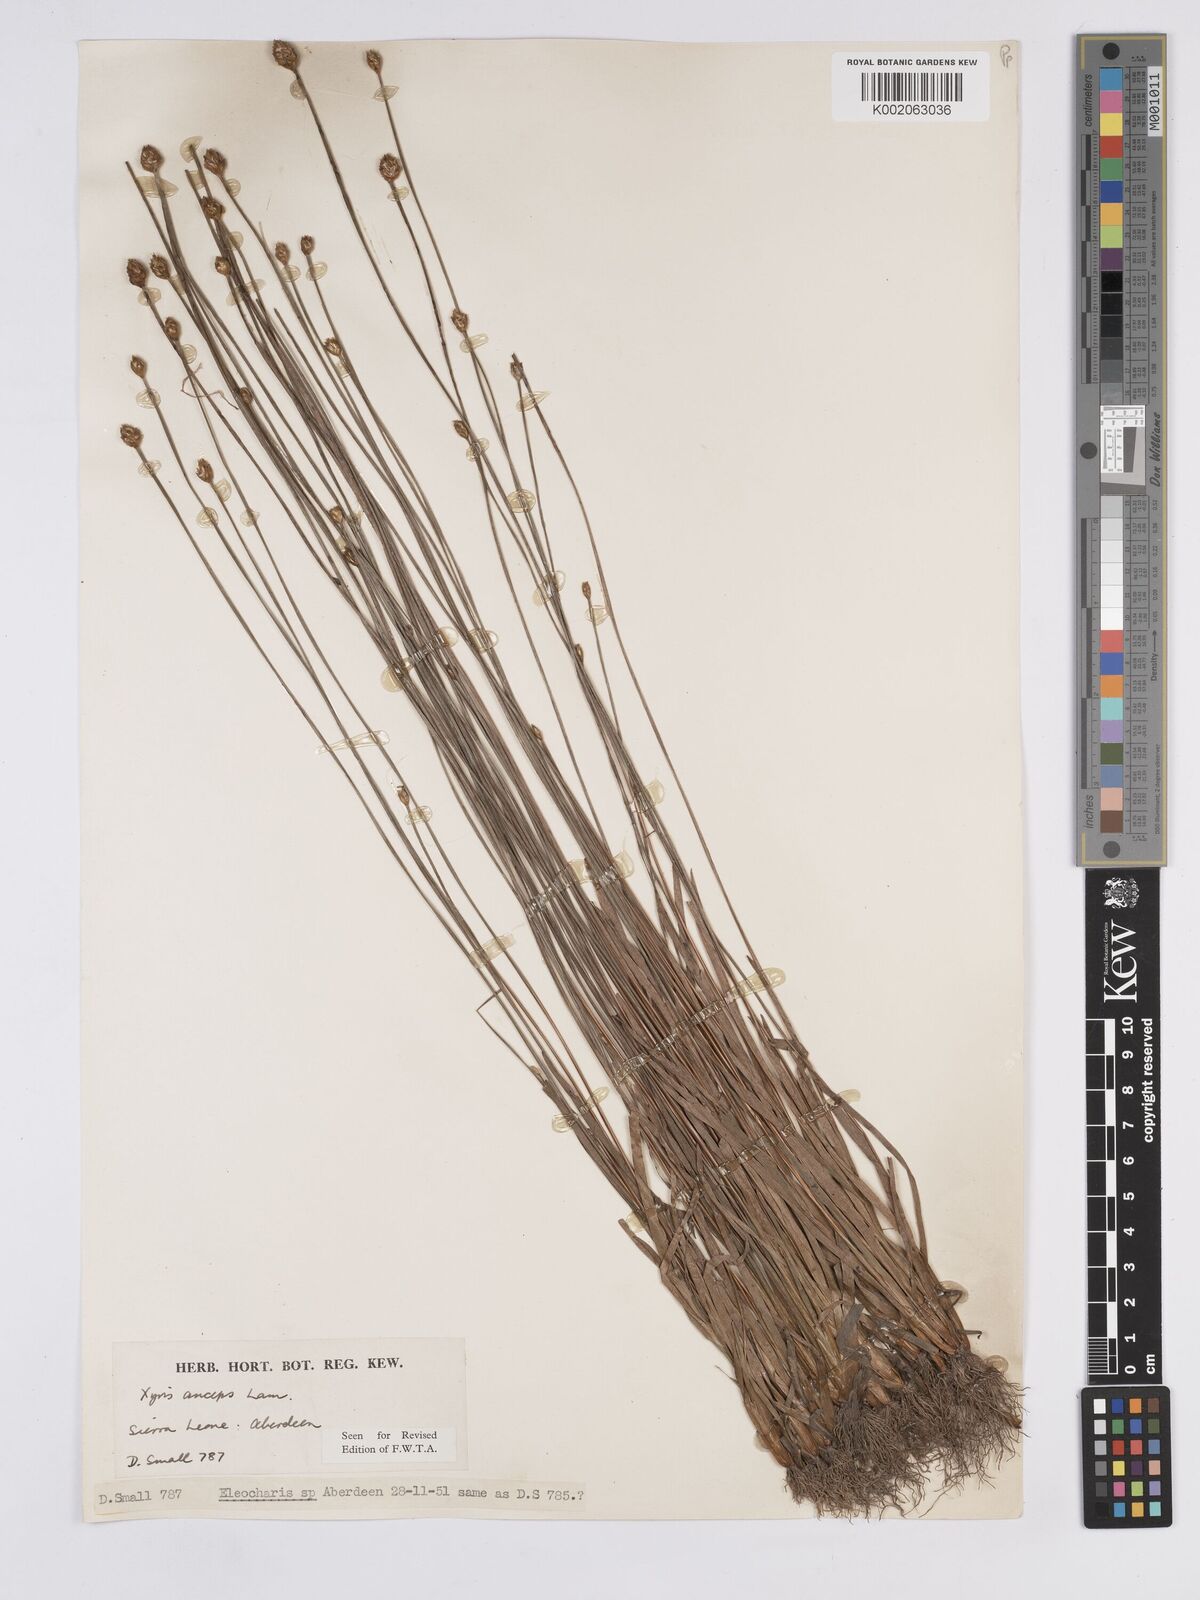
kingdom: Plantae
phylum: Tracheophyta
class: Liliopsida
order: Poales
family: Xyridaceae
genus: Xyris
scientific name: Xyris anceps
